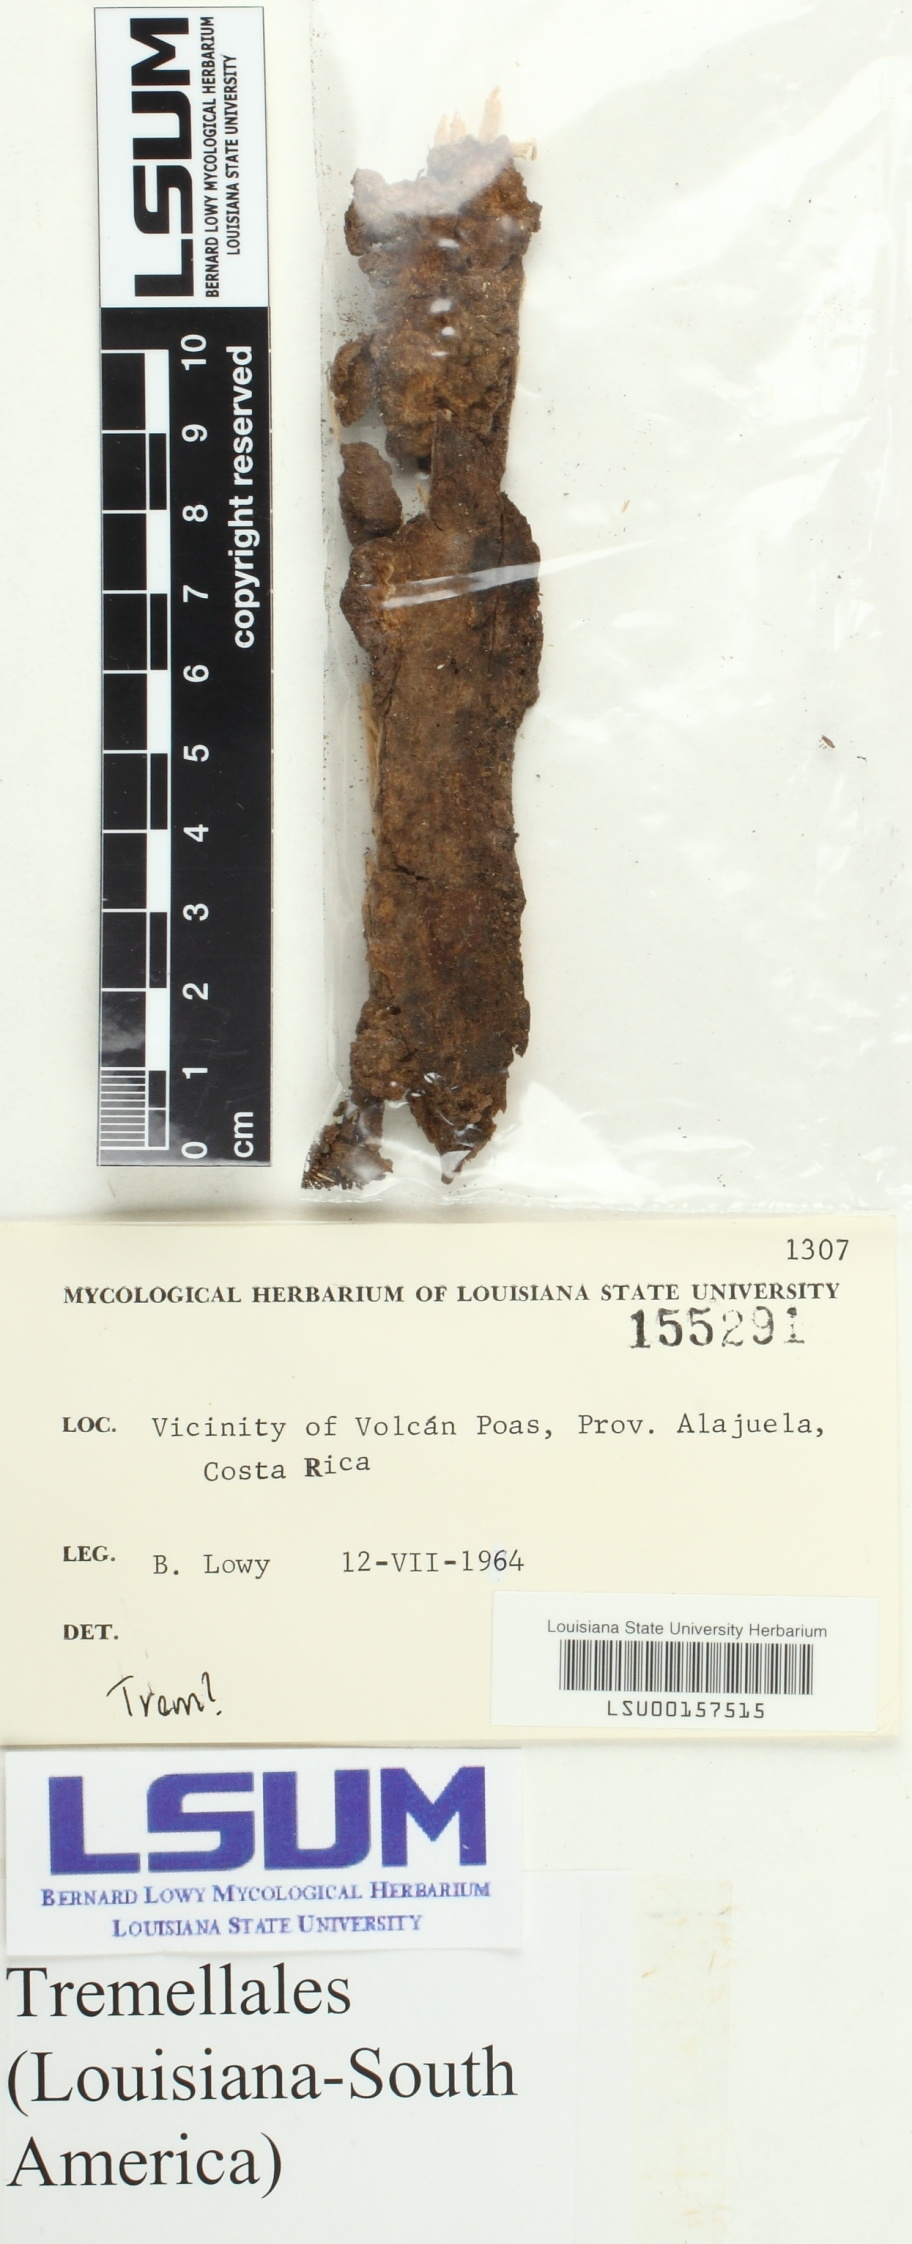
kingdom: Fungi
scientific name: Fungi
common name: Fungi
